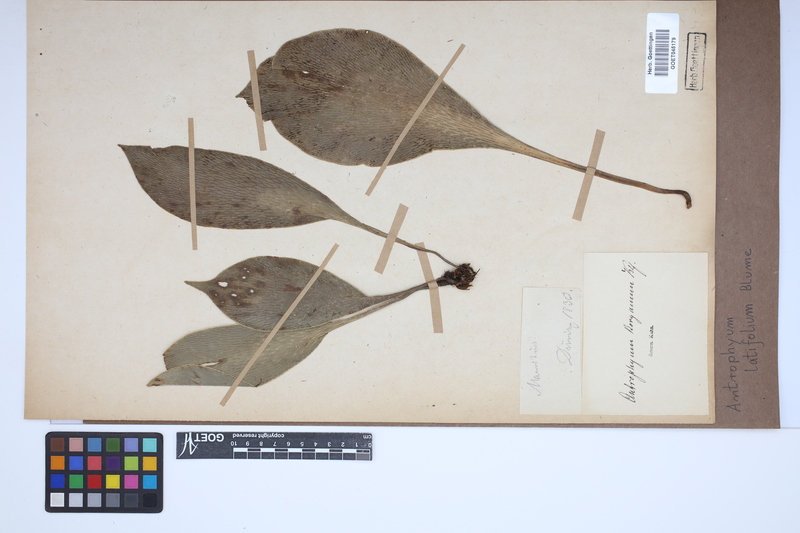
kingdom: Plantae
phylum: Tracheophyta
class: Polypodiopsida
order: Polypodiales
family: Pteridaceae
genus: Antrophyum
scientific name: Antrophyum latifolium
